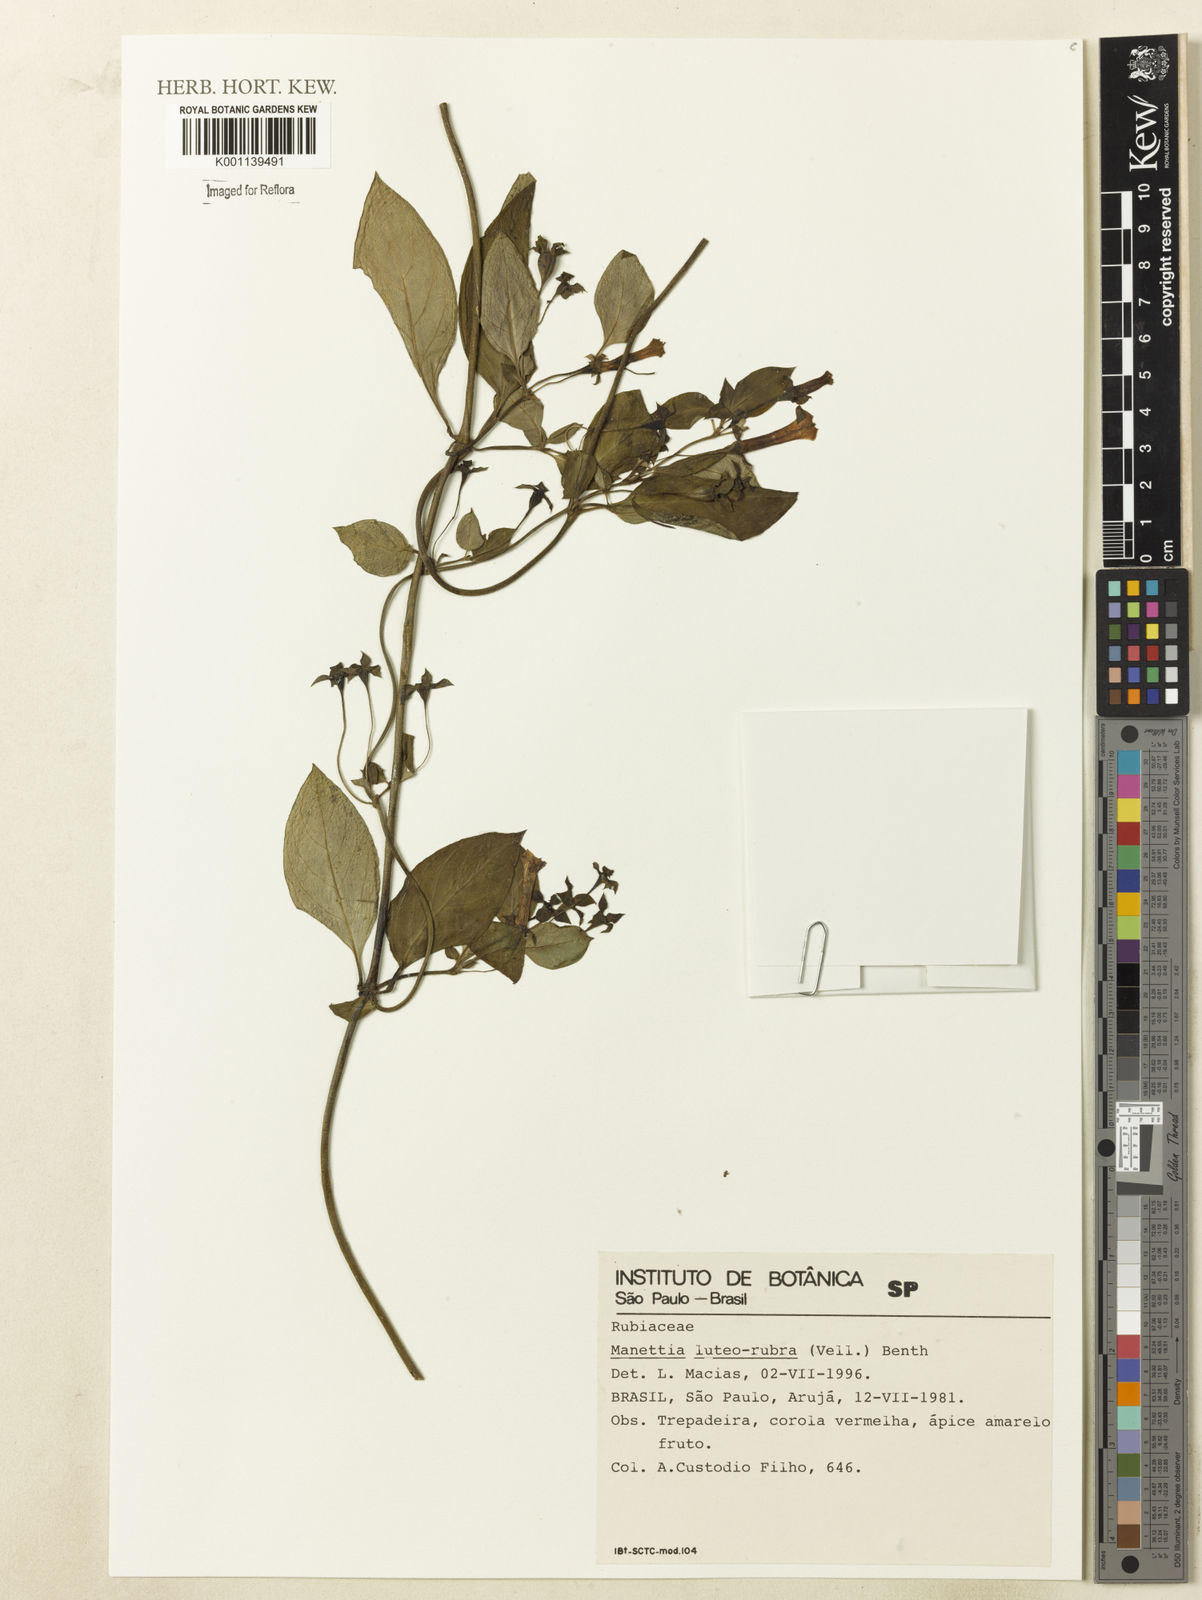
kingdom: Plantae
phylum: Tracheophyta
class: Magnoliopsida
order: Gentianales
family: Rubiaceae
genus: Manettia
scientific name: Manettia luteorubra
